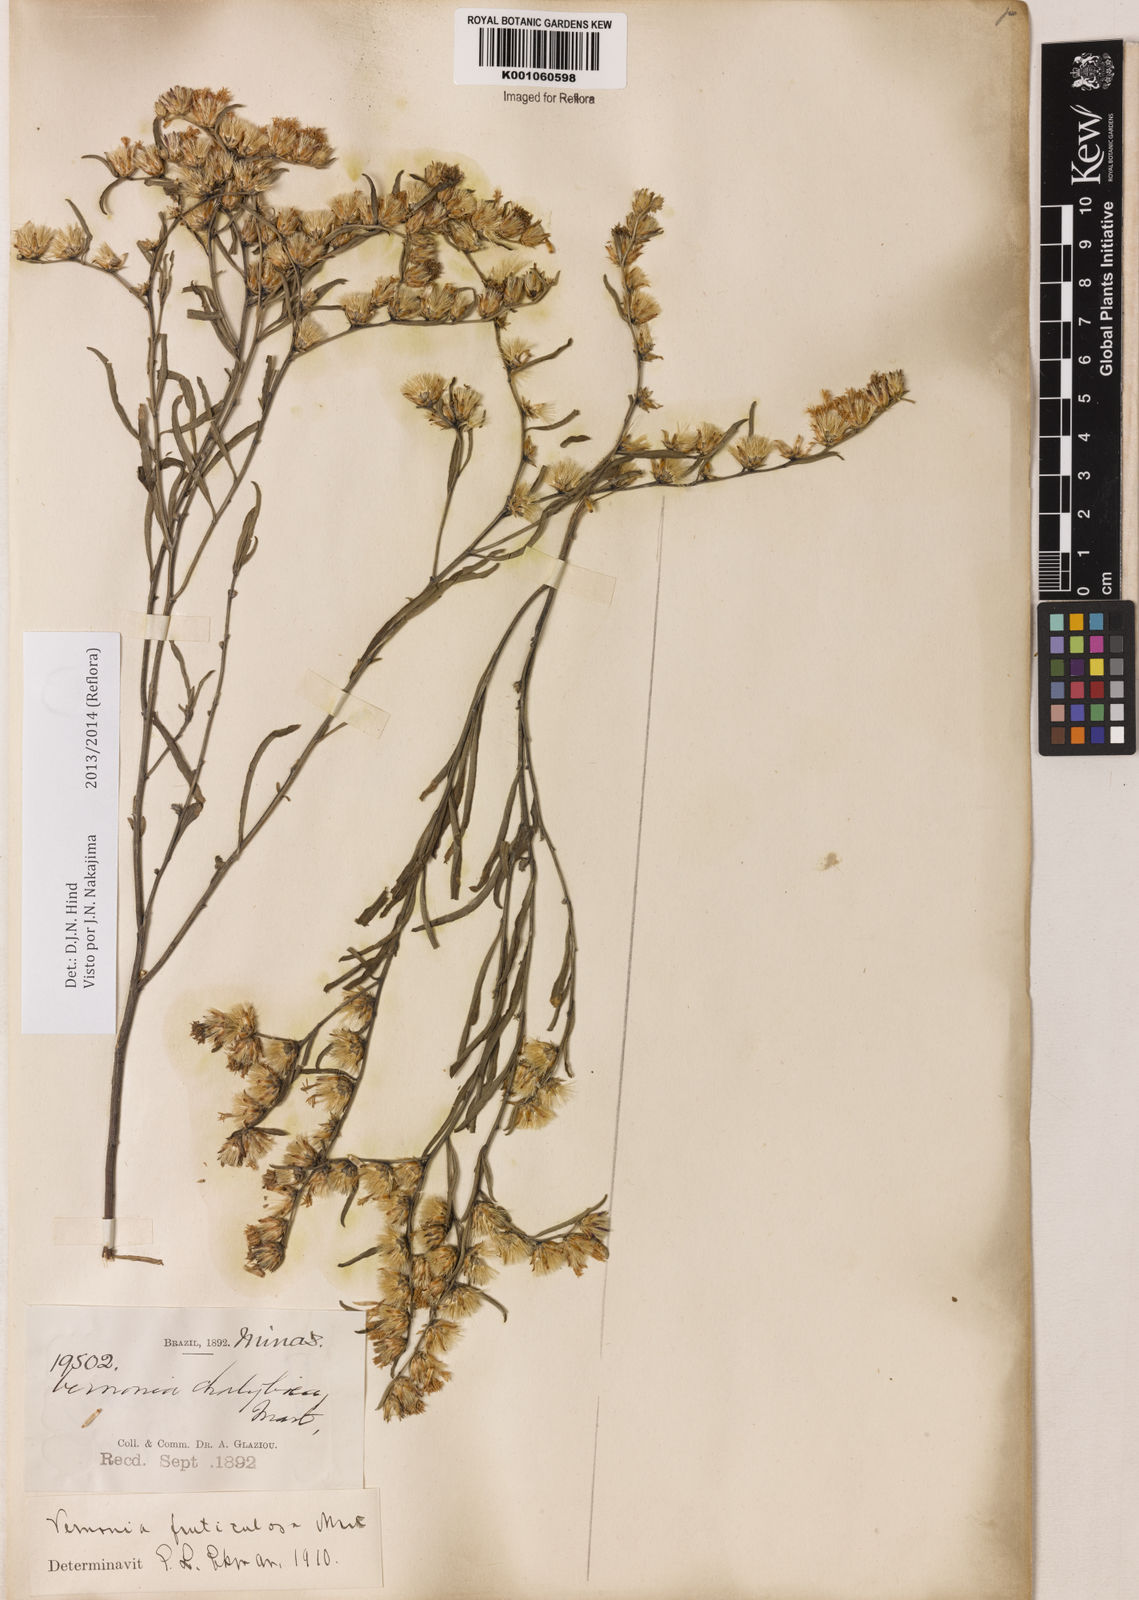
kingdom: Plantae
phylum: Tracheophyta
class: Magnoliopsida
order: Asterales
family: Asteraceae
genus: Lepidaploa
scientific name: Lepidaploa rufogrisea
